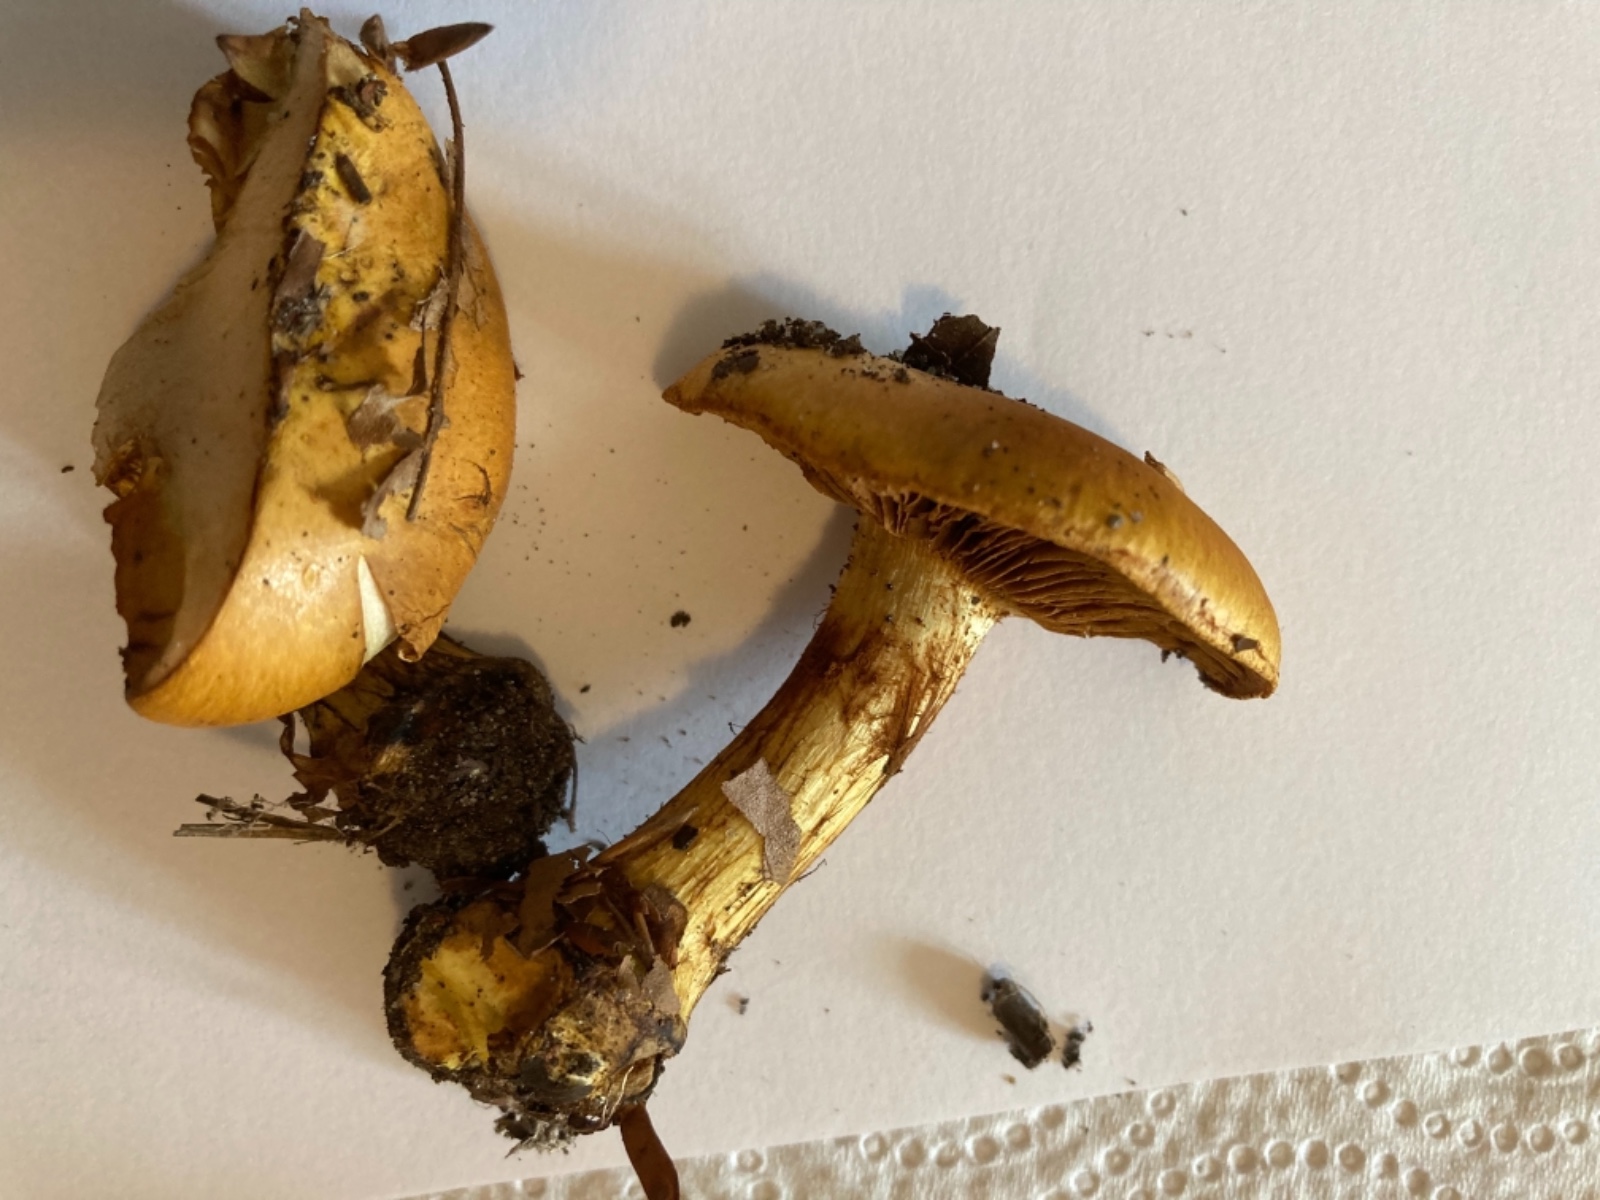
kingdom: Fungi
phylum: Basidiomycota
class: Agaricomycetes
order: Agaricales
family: Cortinariaceae
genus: Calonarius
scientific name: Calonarius alcalinophilus
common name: gyldenbrun slørhat
